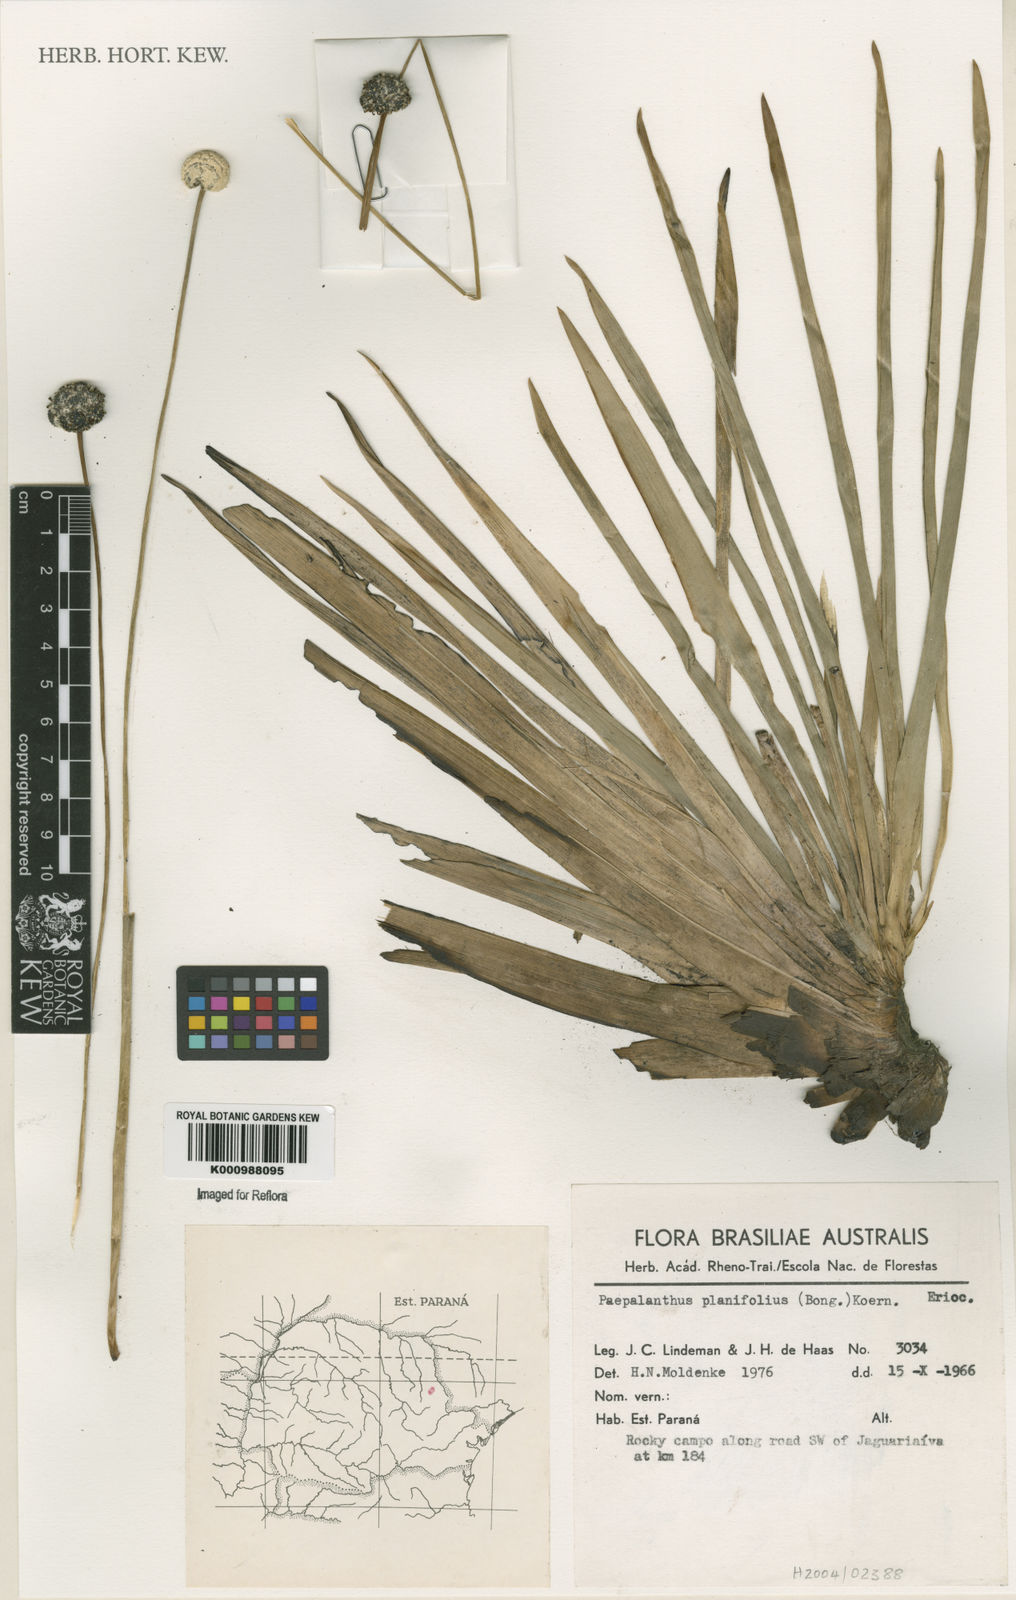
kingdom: Plantae
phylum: Tracheophyta
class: Liliopsida
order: Poales
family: Eriocaulaceae
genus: Paepalanthus
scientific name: Paepalanthus
